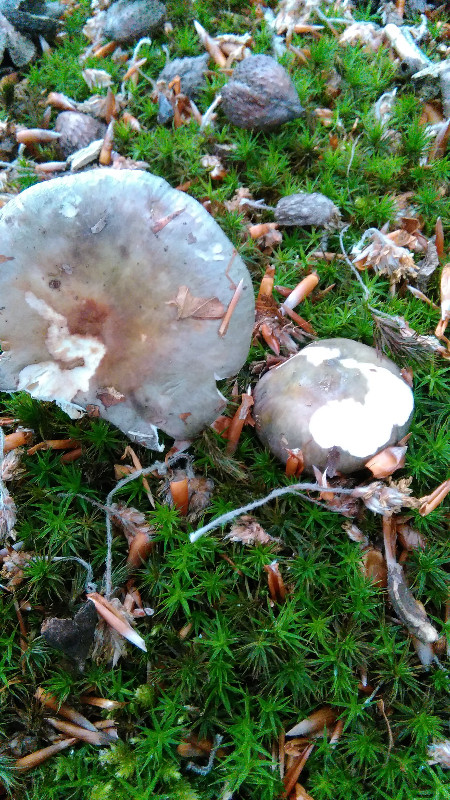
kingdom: Fungi
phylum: Basidiomycota
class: Agaricomycetes
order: Russulales
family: Russulaceae
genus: Russula
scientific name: Russula cyanoxantha
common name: broget skørhat
